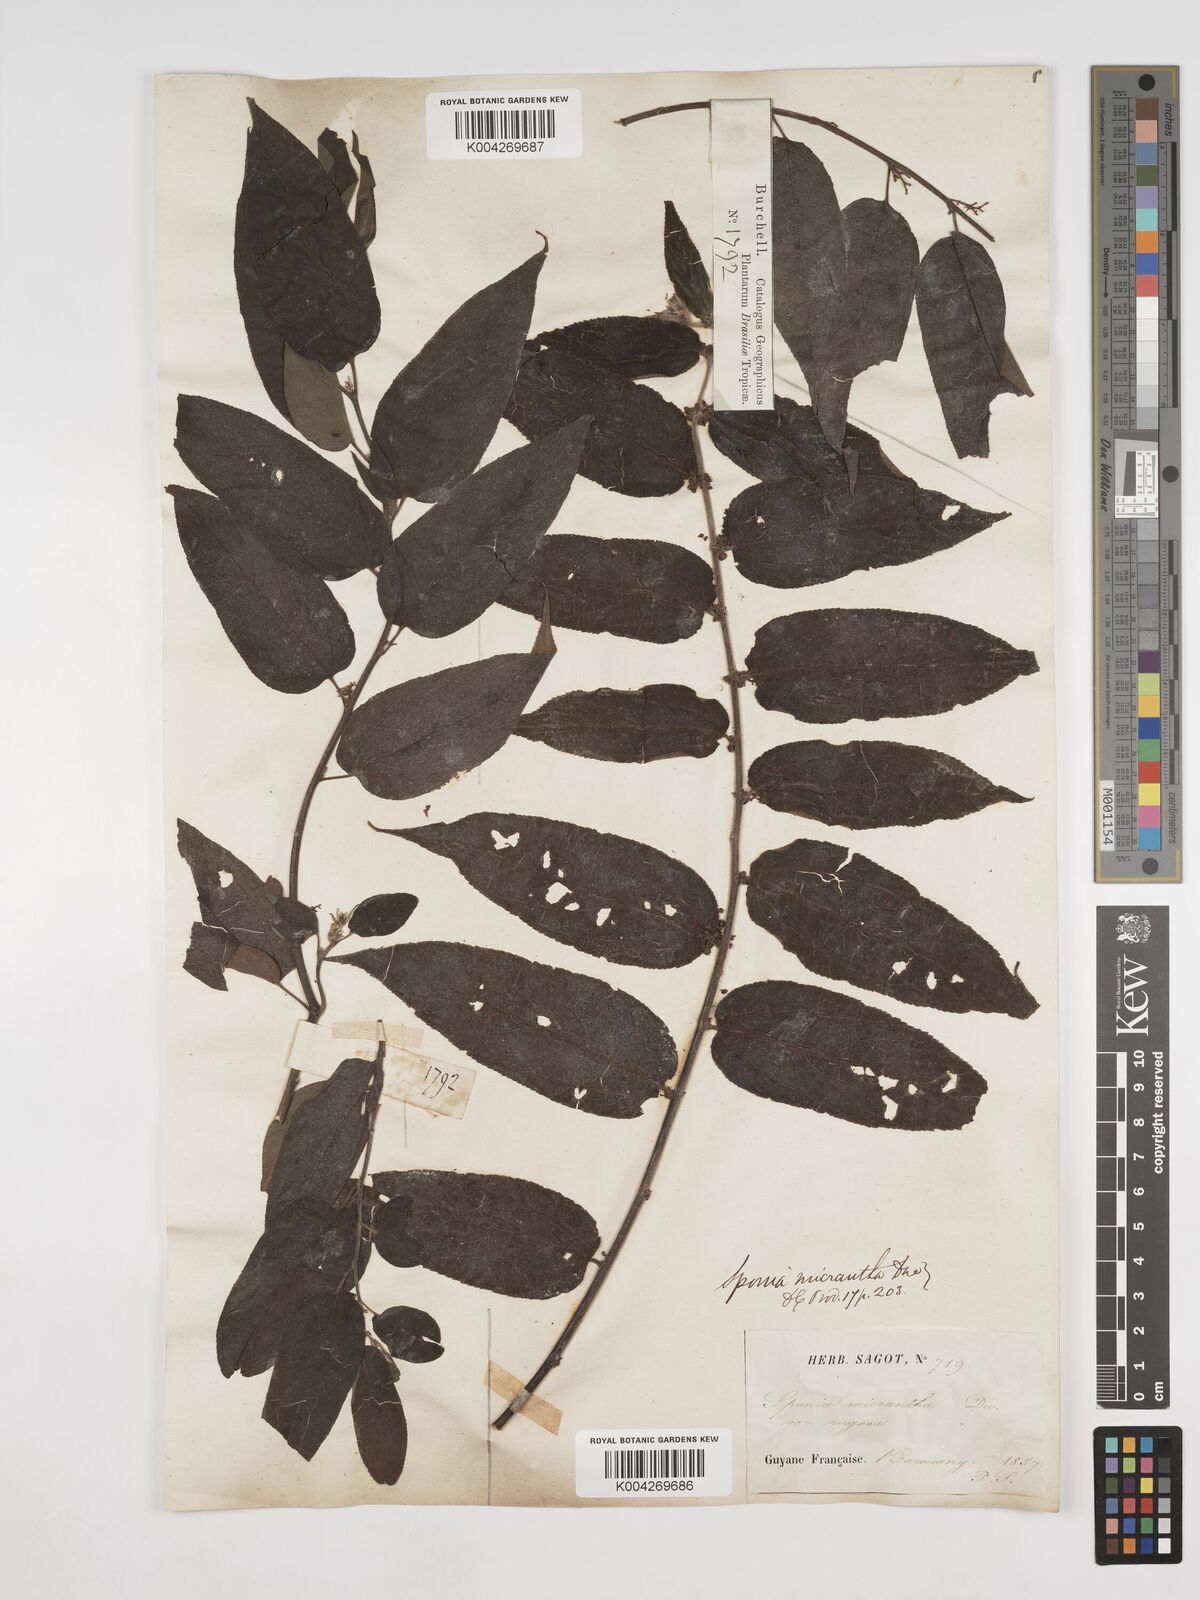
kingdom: Plantae
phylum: Tracheophyta
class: Magnoliopsida
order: Rosales
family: Cannabaceae
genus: Trema
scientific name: Trema micranthum
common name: Jamaican nettletree
